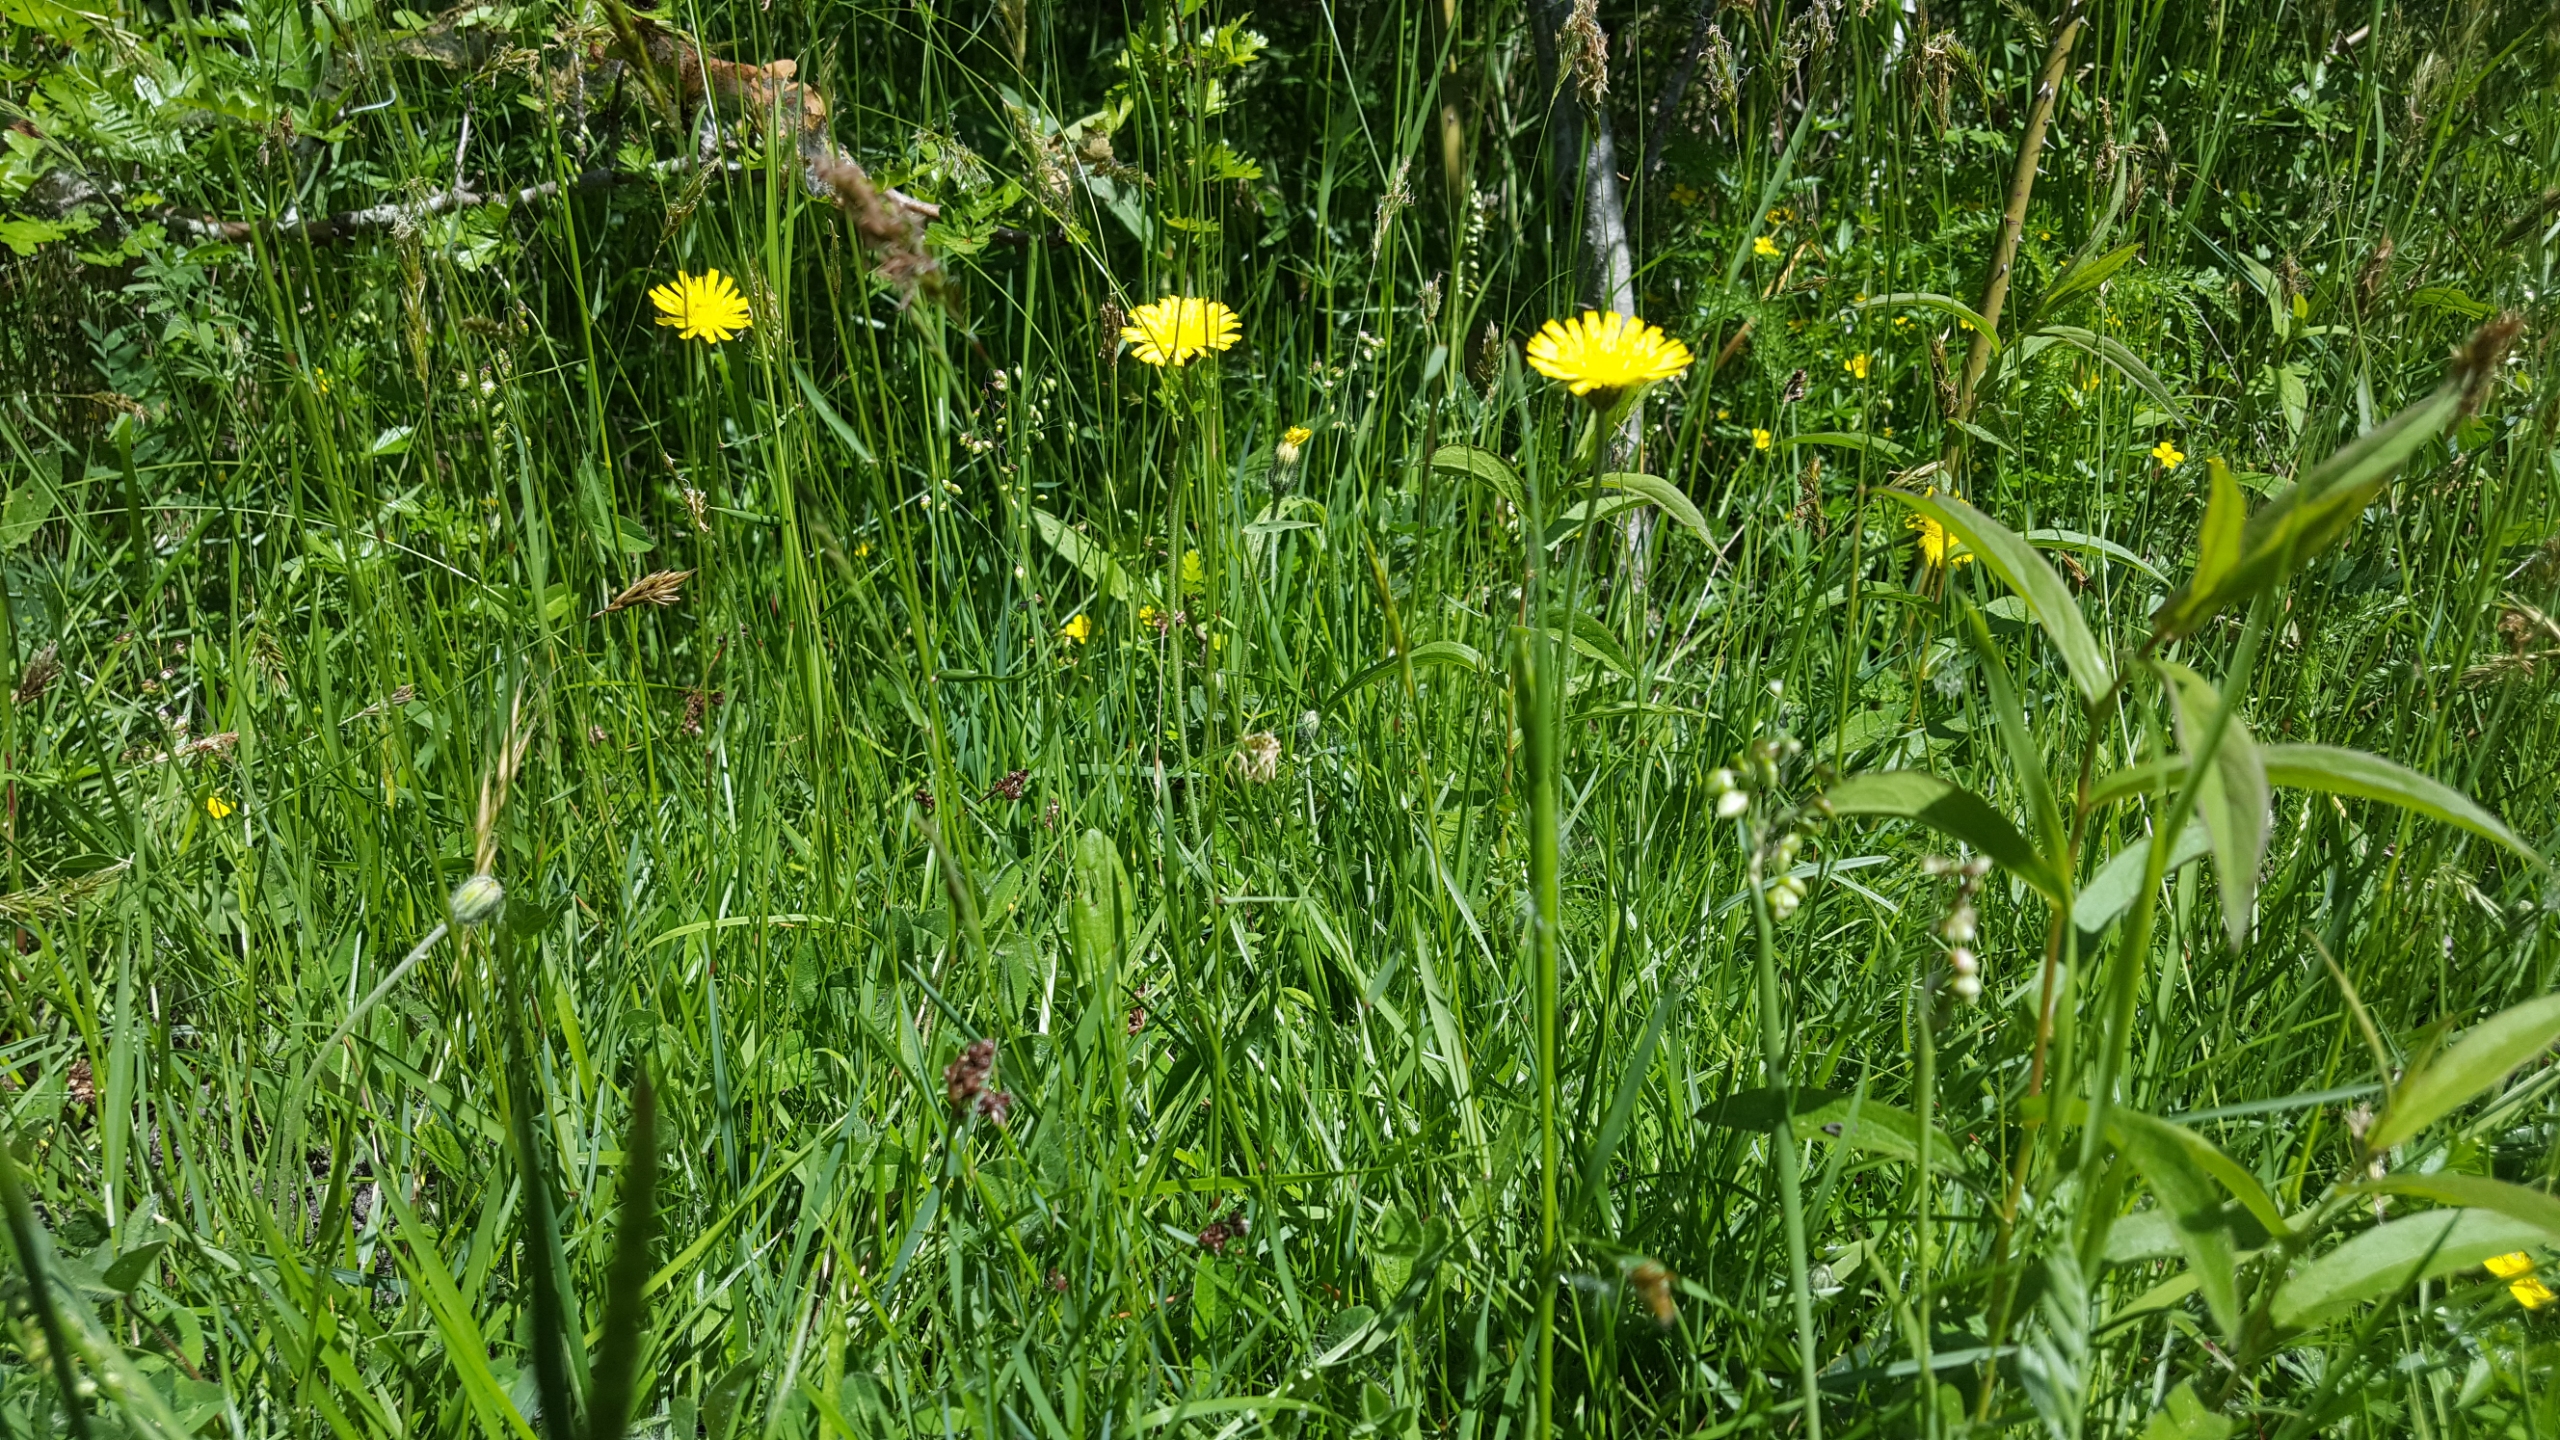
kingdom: Plantae
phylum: Tracheophyta
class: Magnoliopsida
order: Asterales
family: Asteraceae
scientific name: Asteraceae
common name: Kurvblomstfamilien
